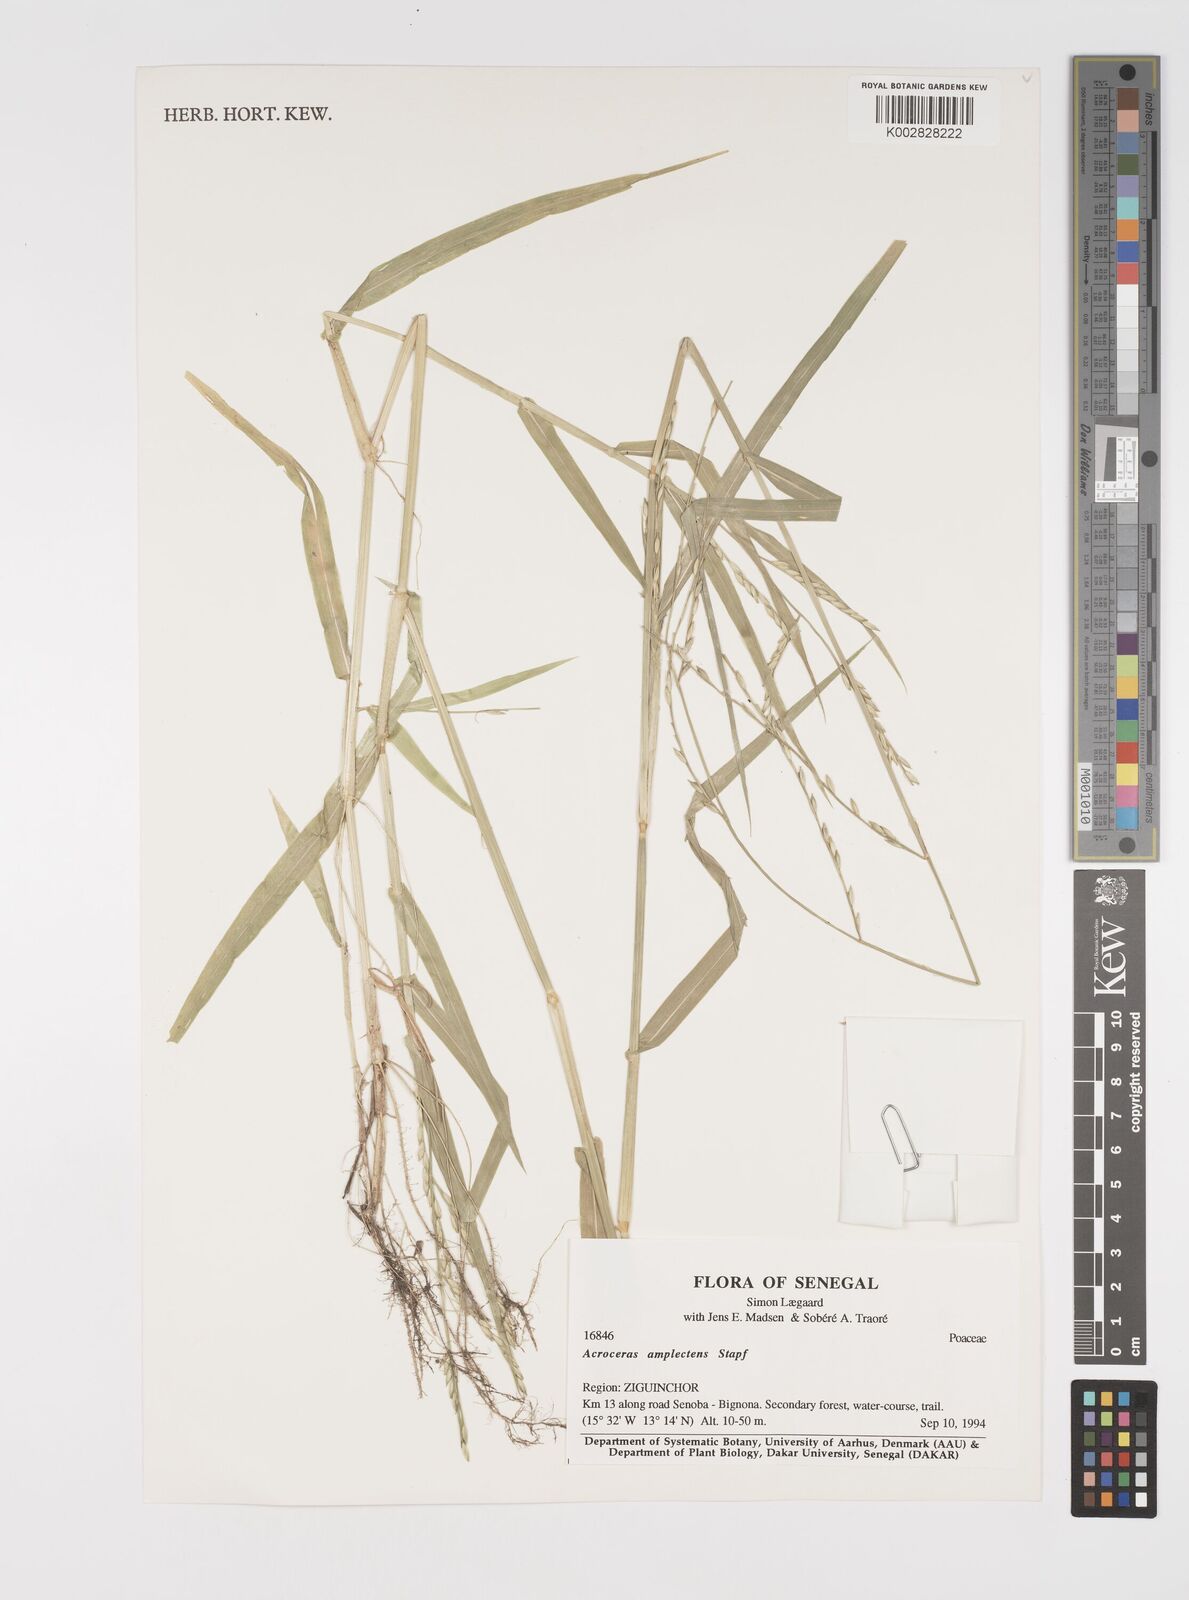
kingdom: Plantae
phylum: Tracheophyta
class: Liliopsida
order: Poales
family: Poaceae
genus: Acroceras
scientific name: Acroceras amplectens
